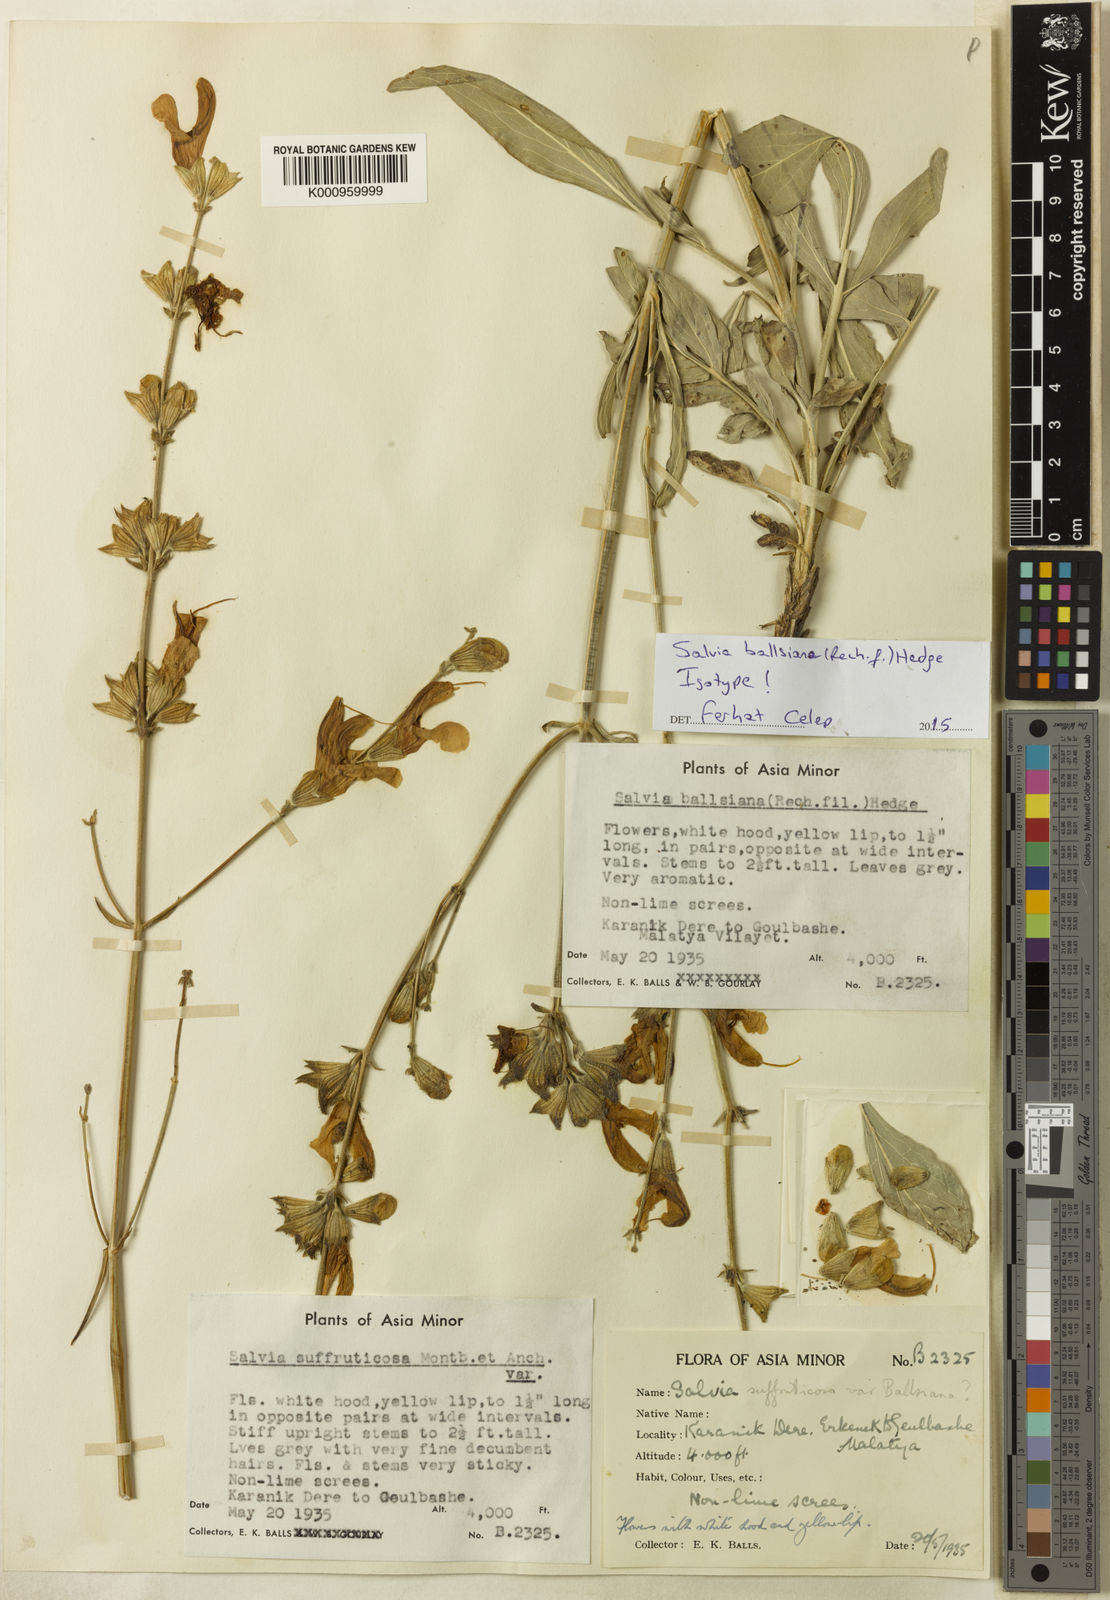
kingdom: Plantae
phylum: Tracheophyta
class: Magnoliopsida
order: Lamiales
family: Lamiaceae
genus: Salvia
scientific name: Salvia ballsiana
